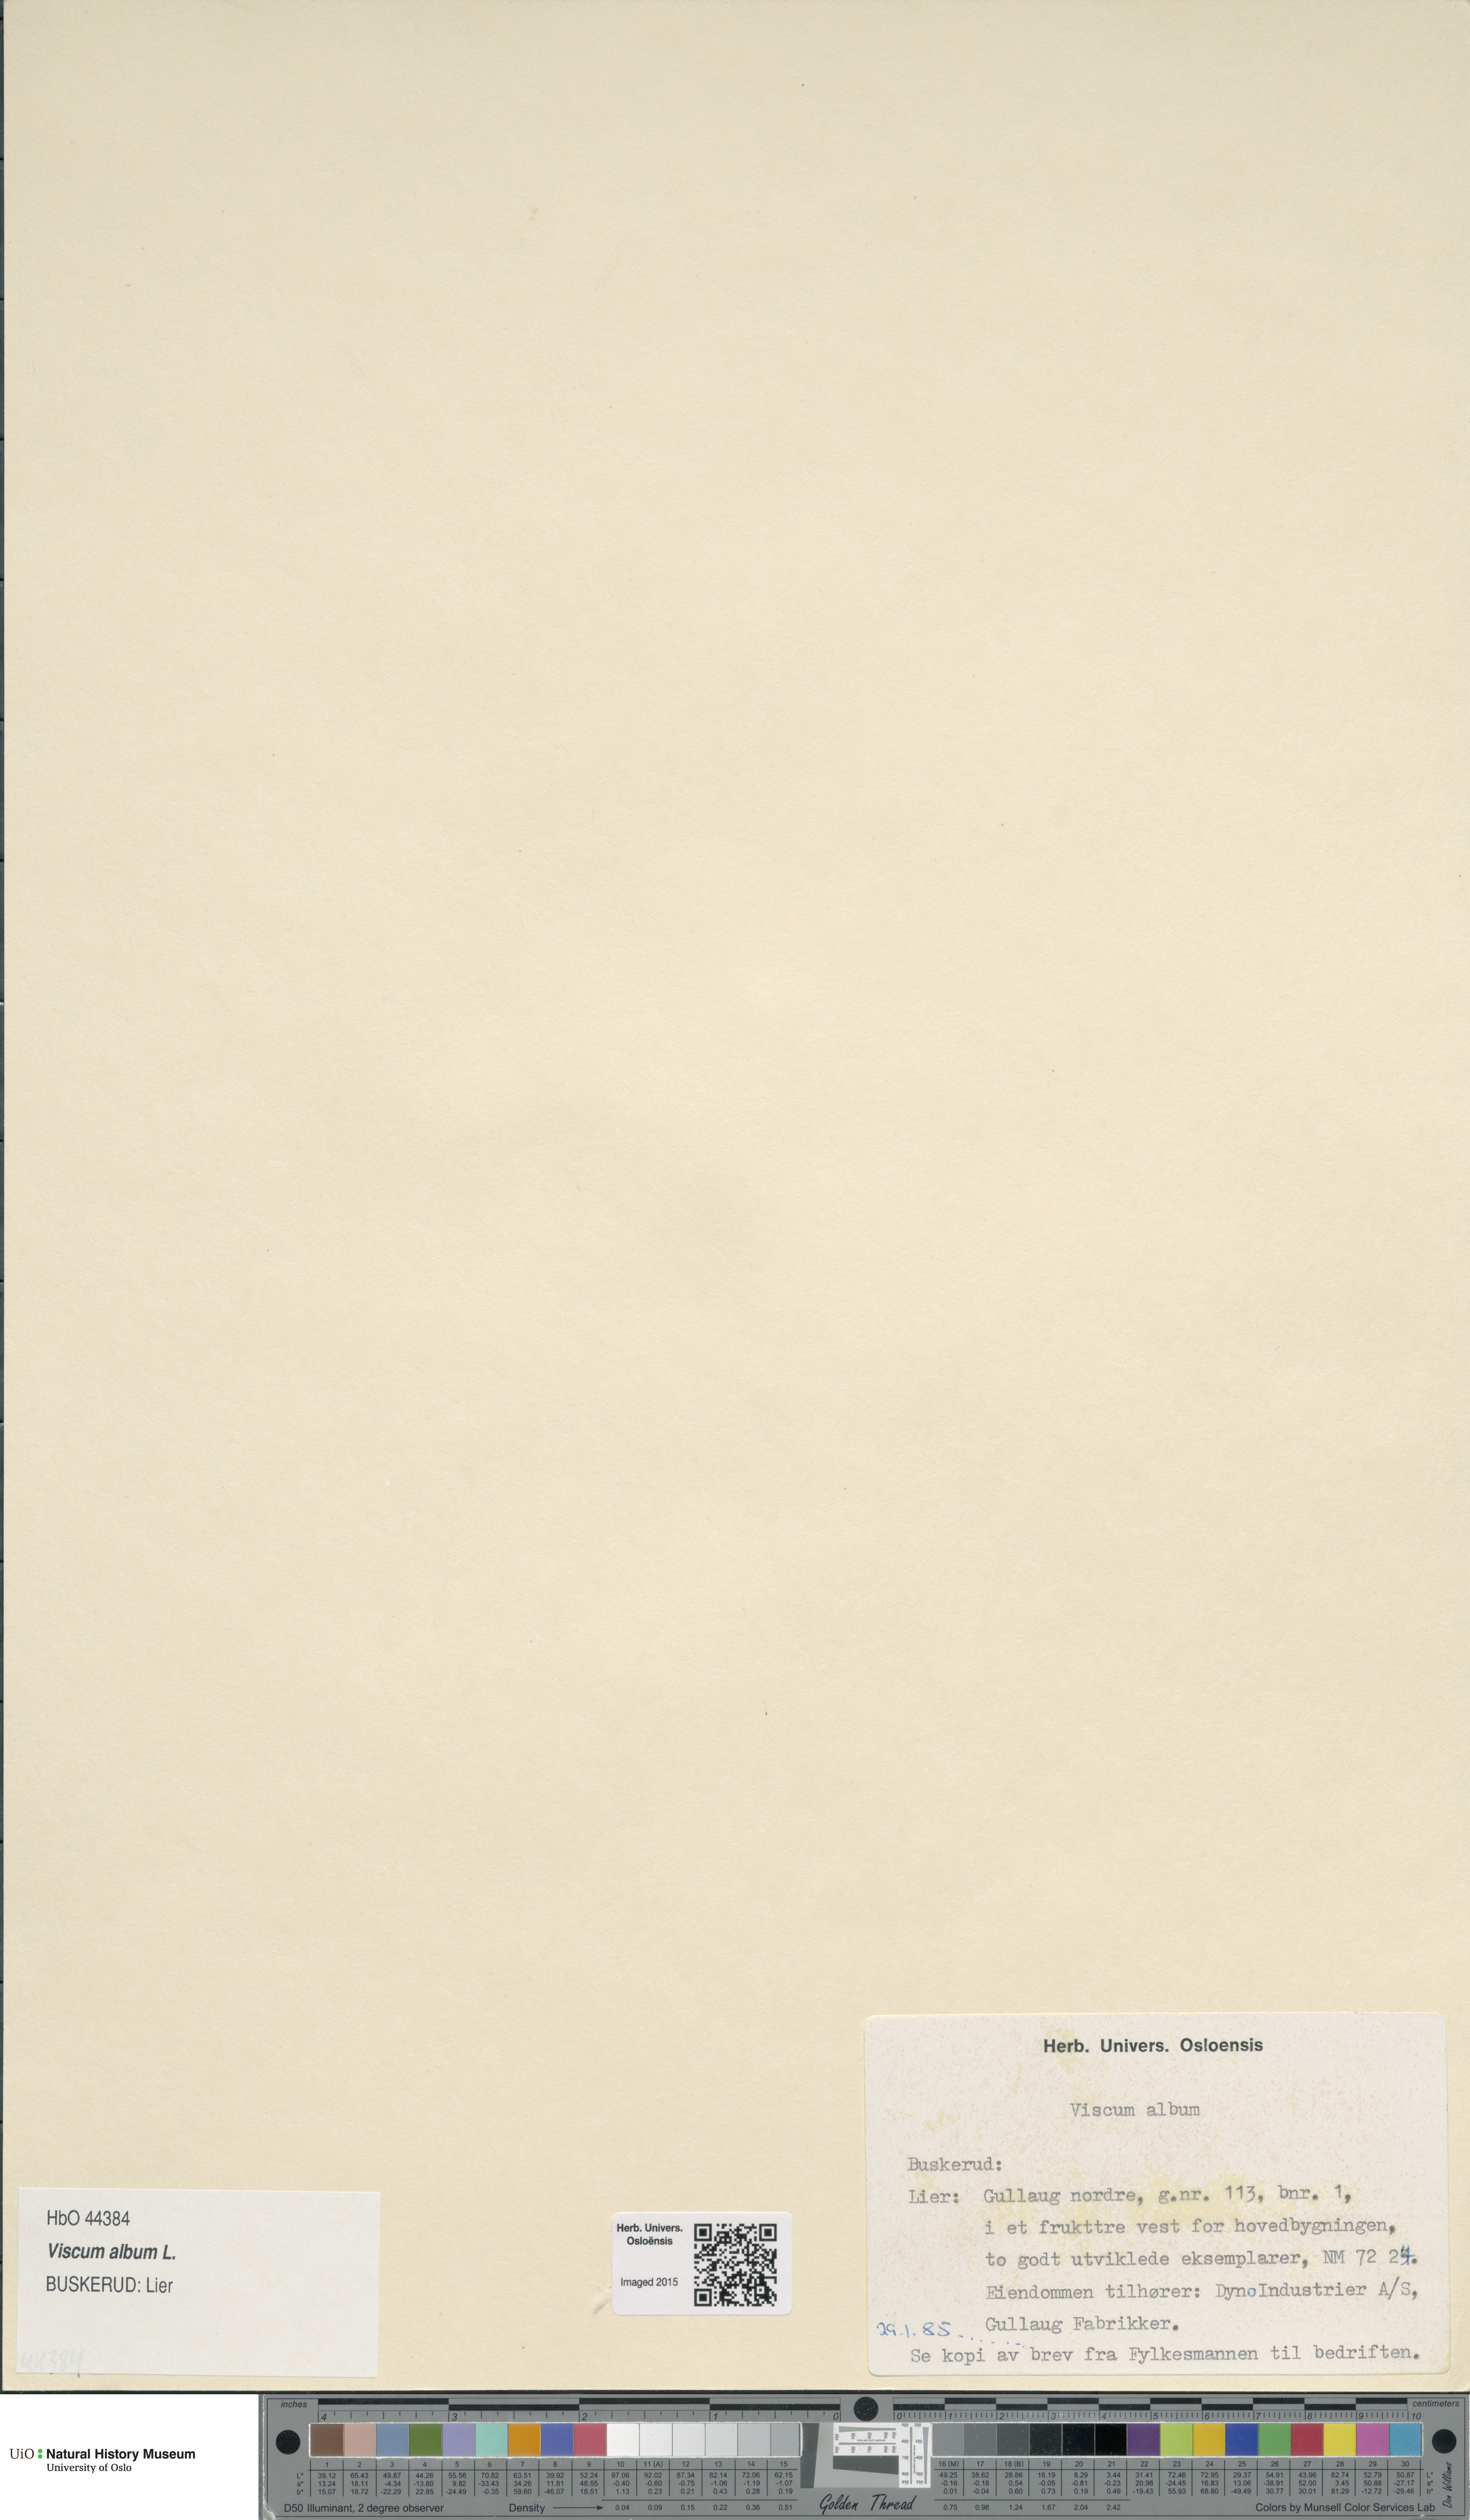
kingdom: Plantae
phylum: Tracheophyta
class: Magnoliopsida
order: Santalales
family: Viscaceae
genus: Viscum
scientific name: Viscum album
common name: Mistletoe
